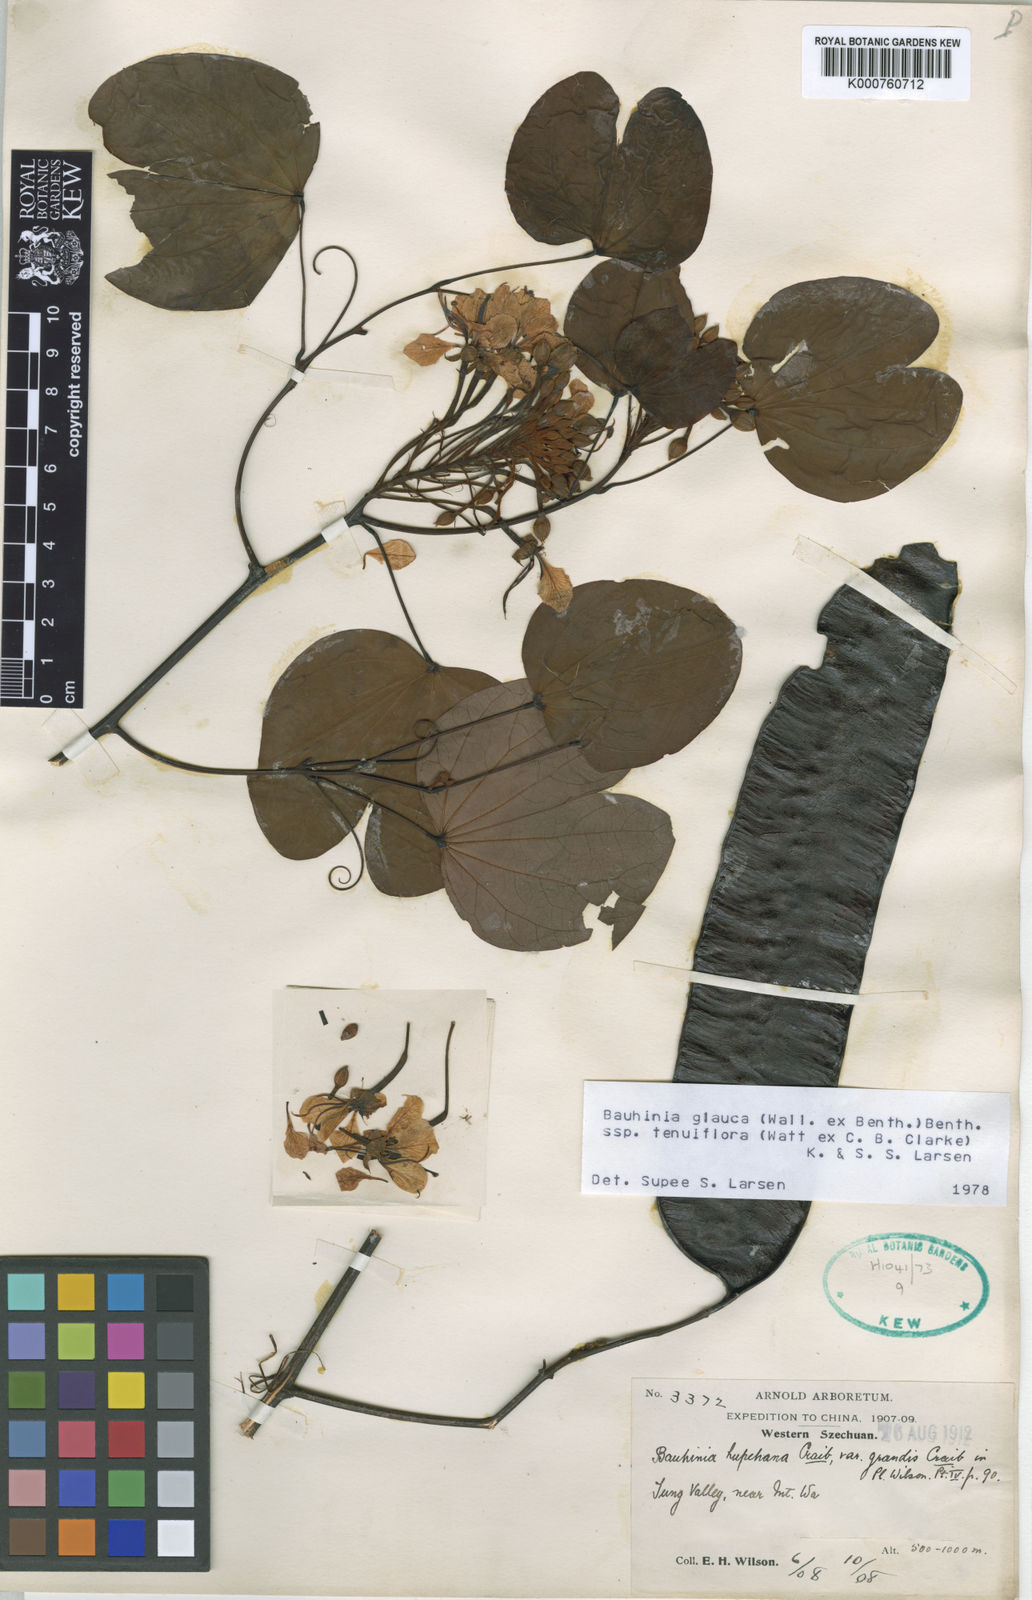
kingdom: Plantae
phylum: Tracheophyta
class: Magnoliopsida
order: Fabales
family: Fabaceae
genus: Cheniella
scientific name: Cheniella tenuiflora
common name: Bauhinia
